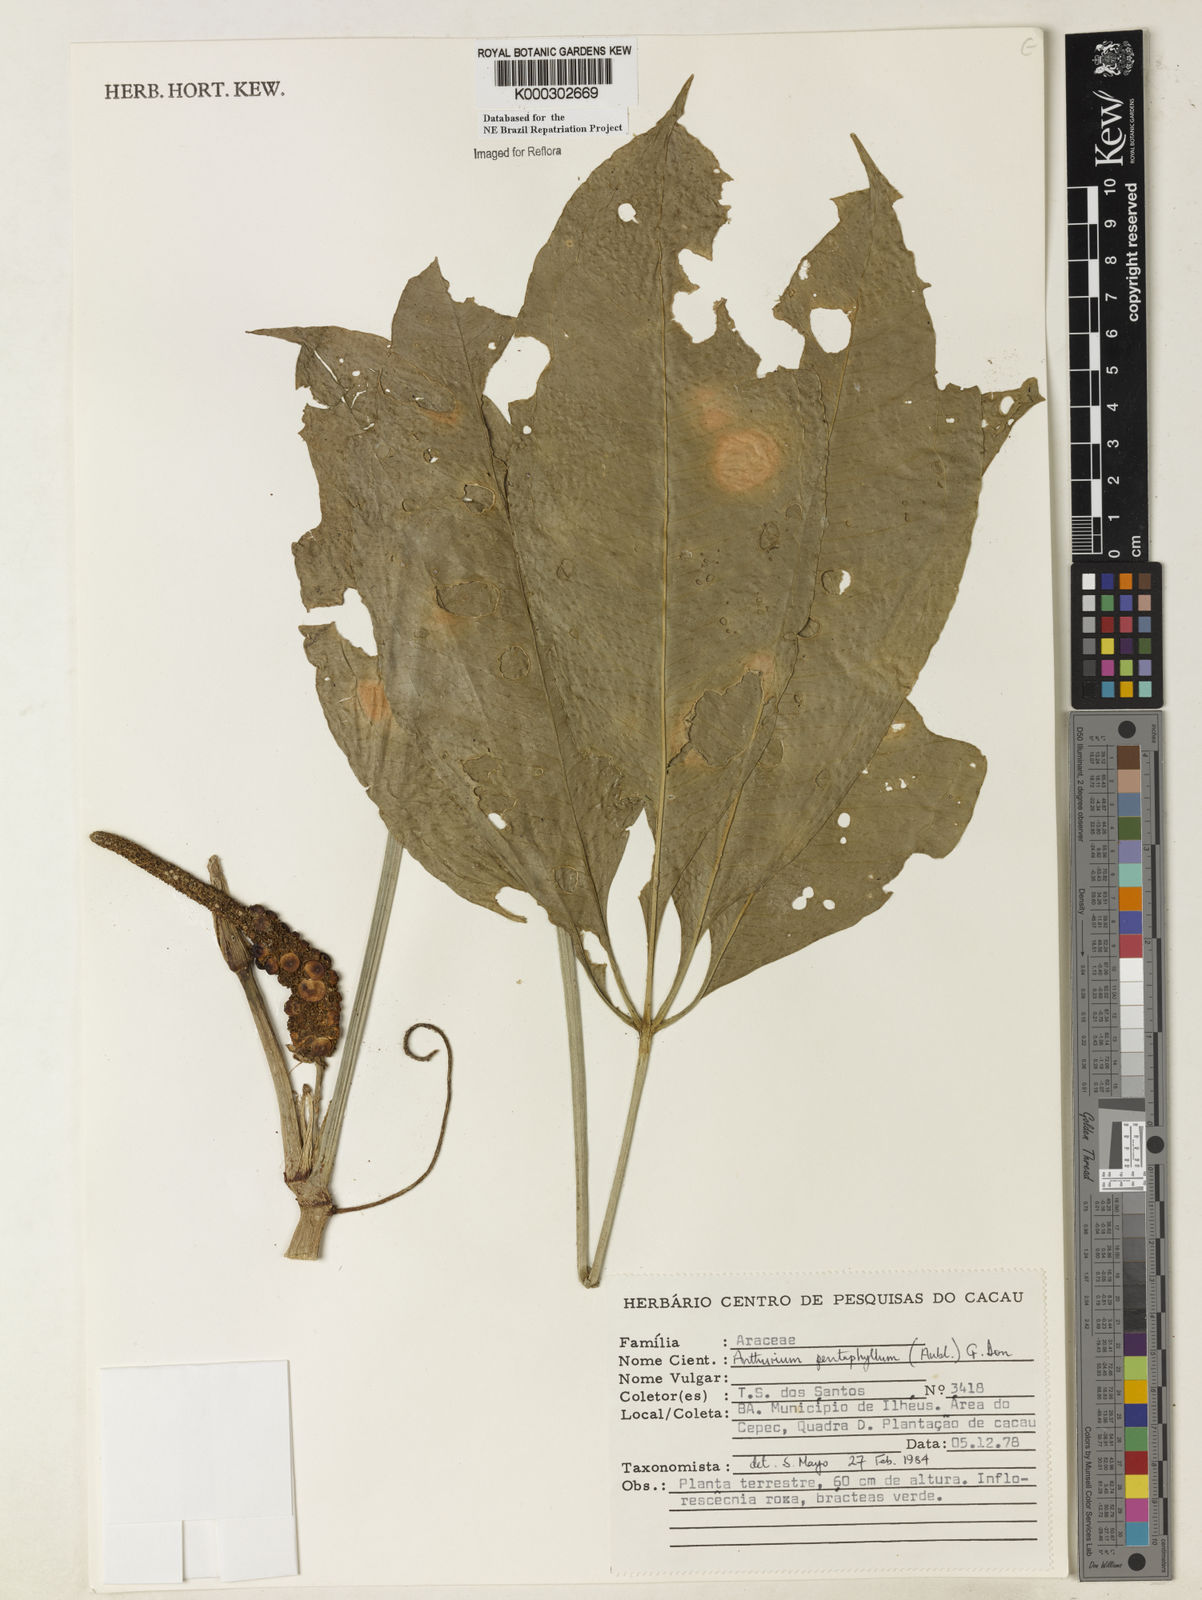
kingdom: Plantae
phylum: Tracheophyta
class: Liliopsida
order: Alismatales
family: Araceae
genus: Anthurium
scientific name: Anthurium pentaphyllum
